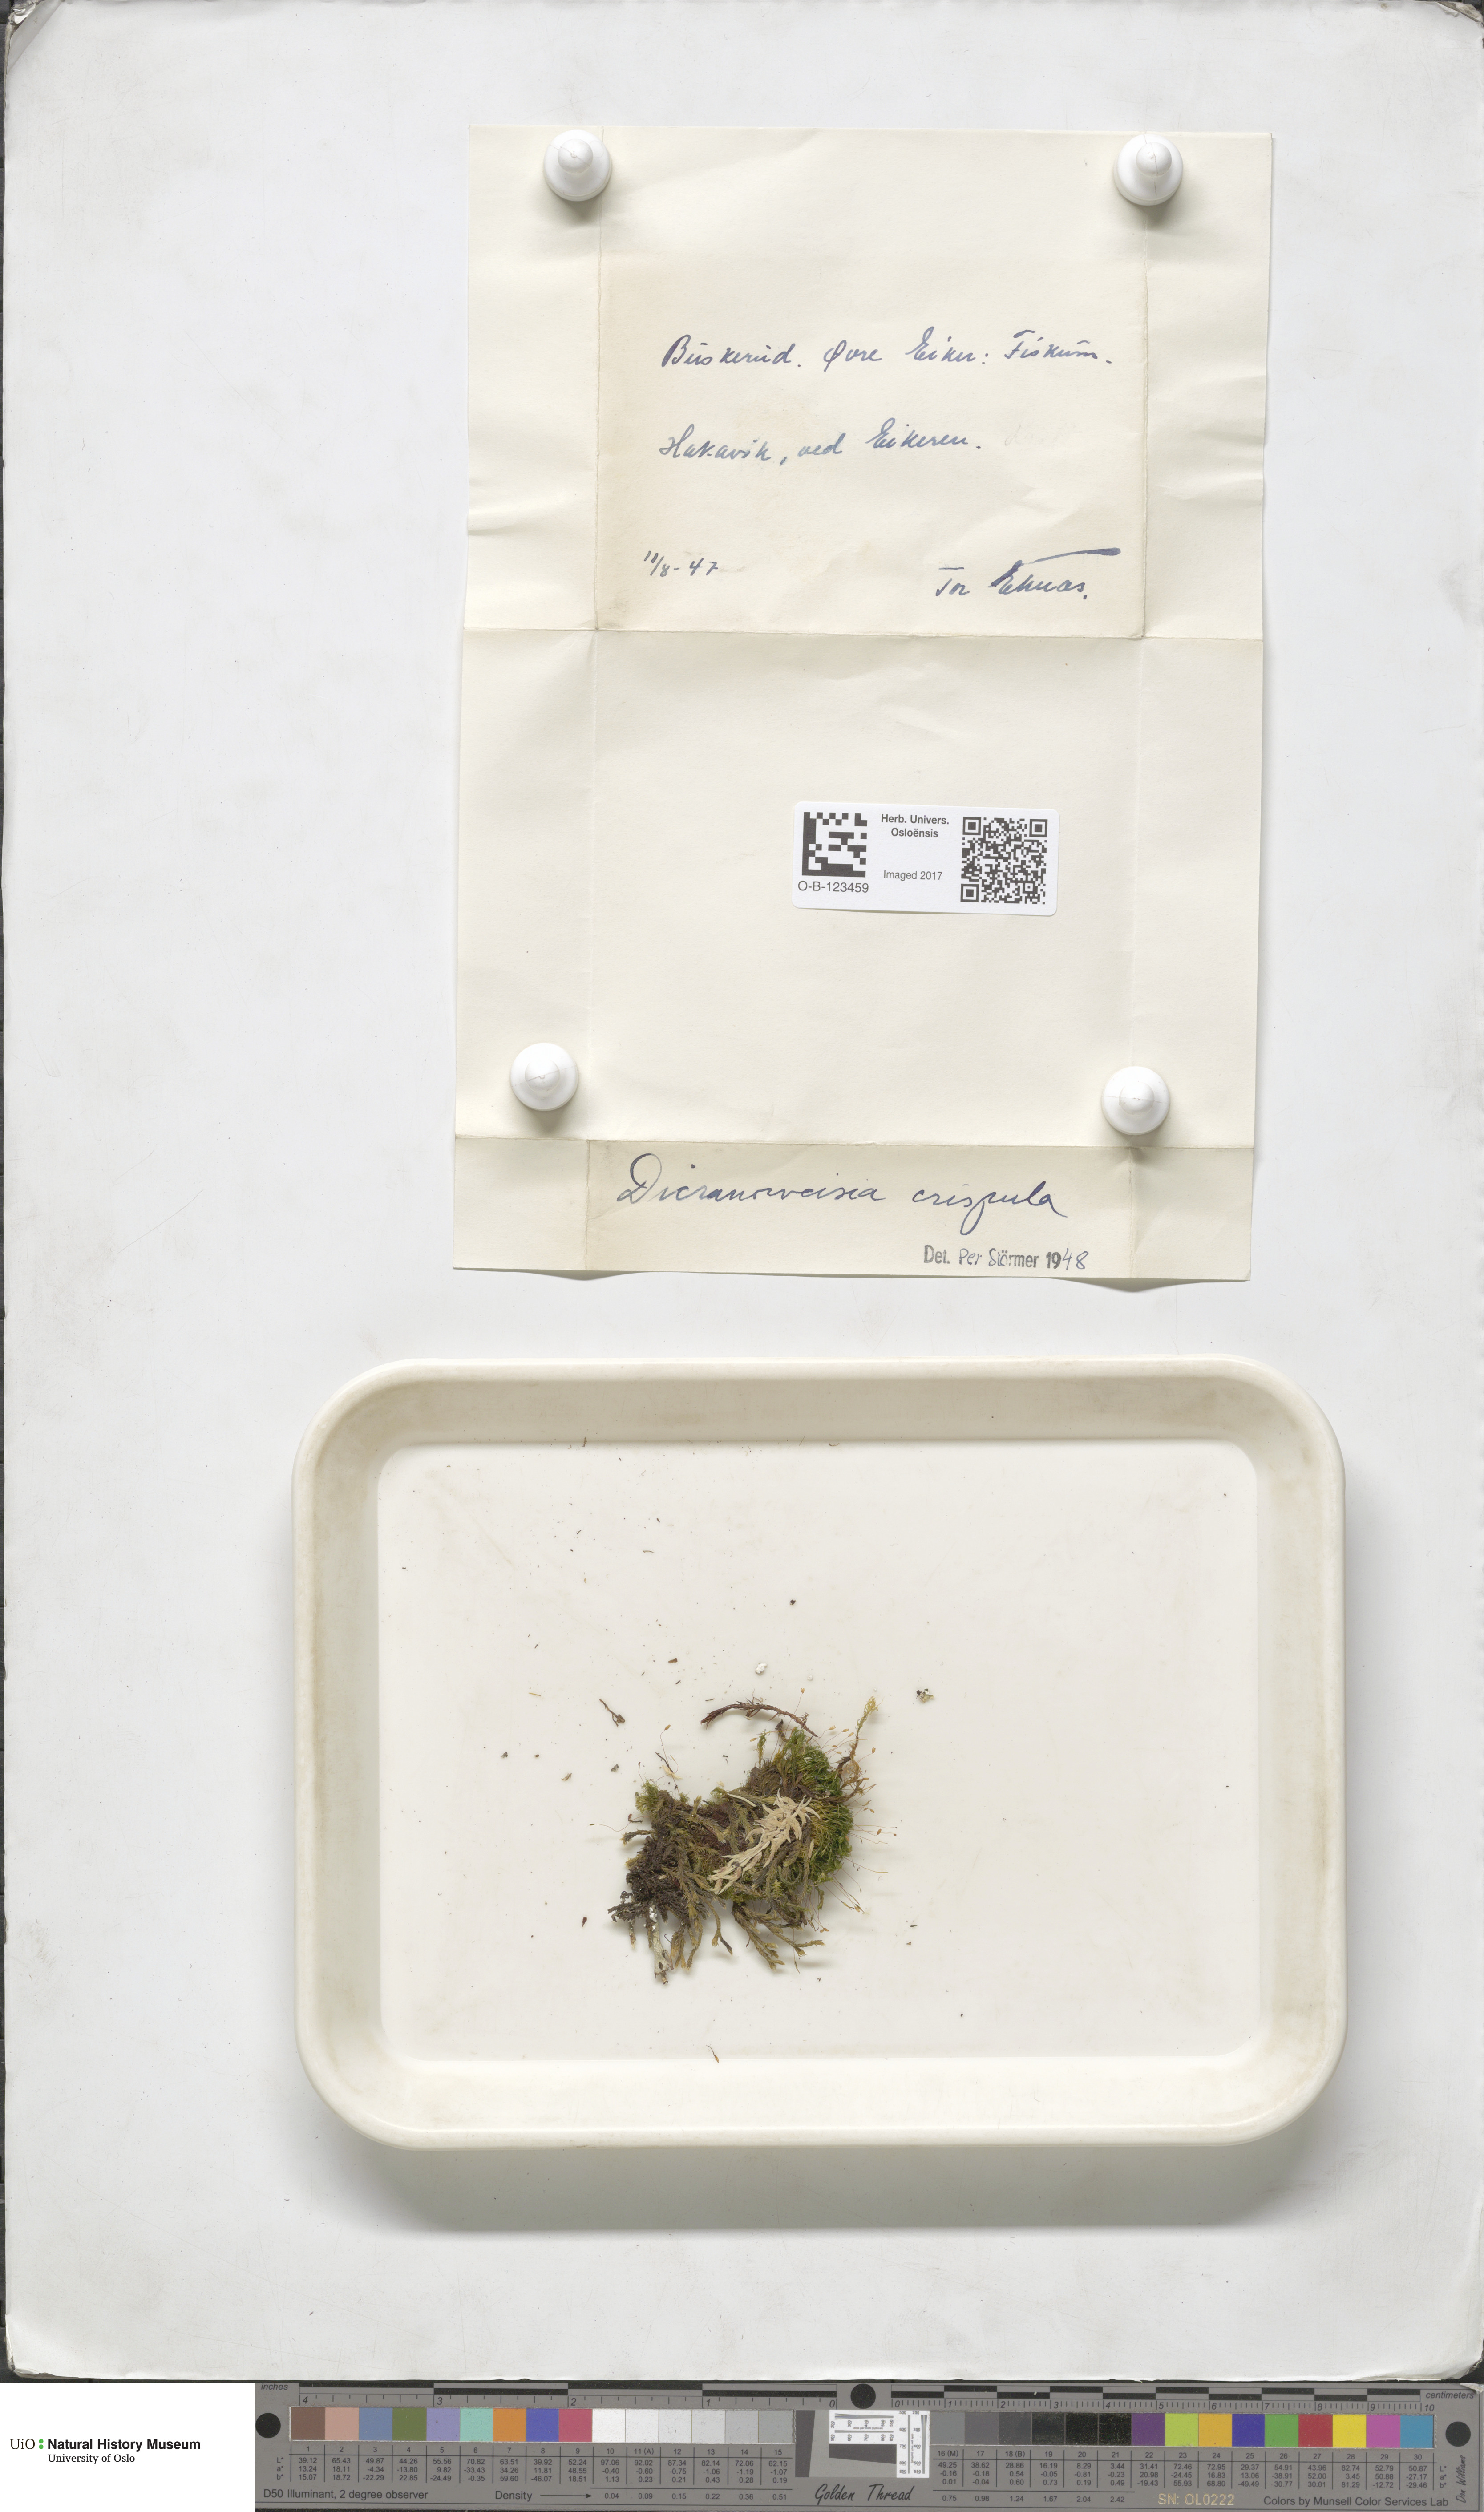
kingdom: Plantae
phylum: Bryophyta
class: Bryopsida
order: Scouleriales
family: Hymenolomataceae
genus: Hymenoloma
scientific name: Hymenoloma crispulum
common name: Mountain pincushion
